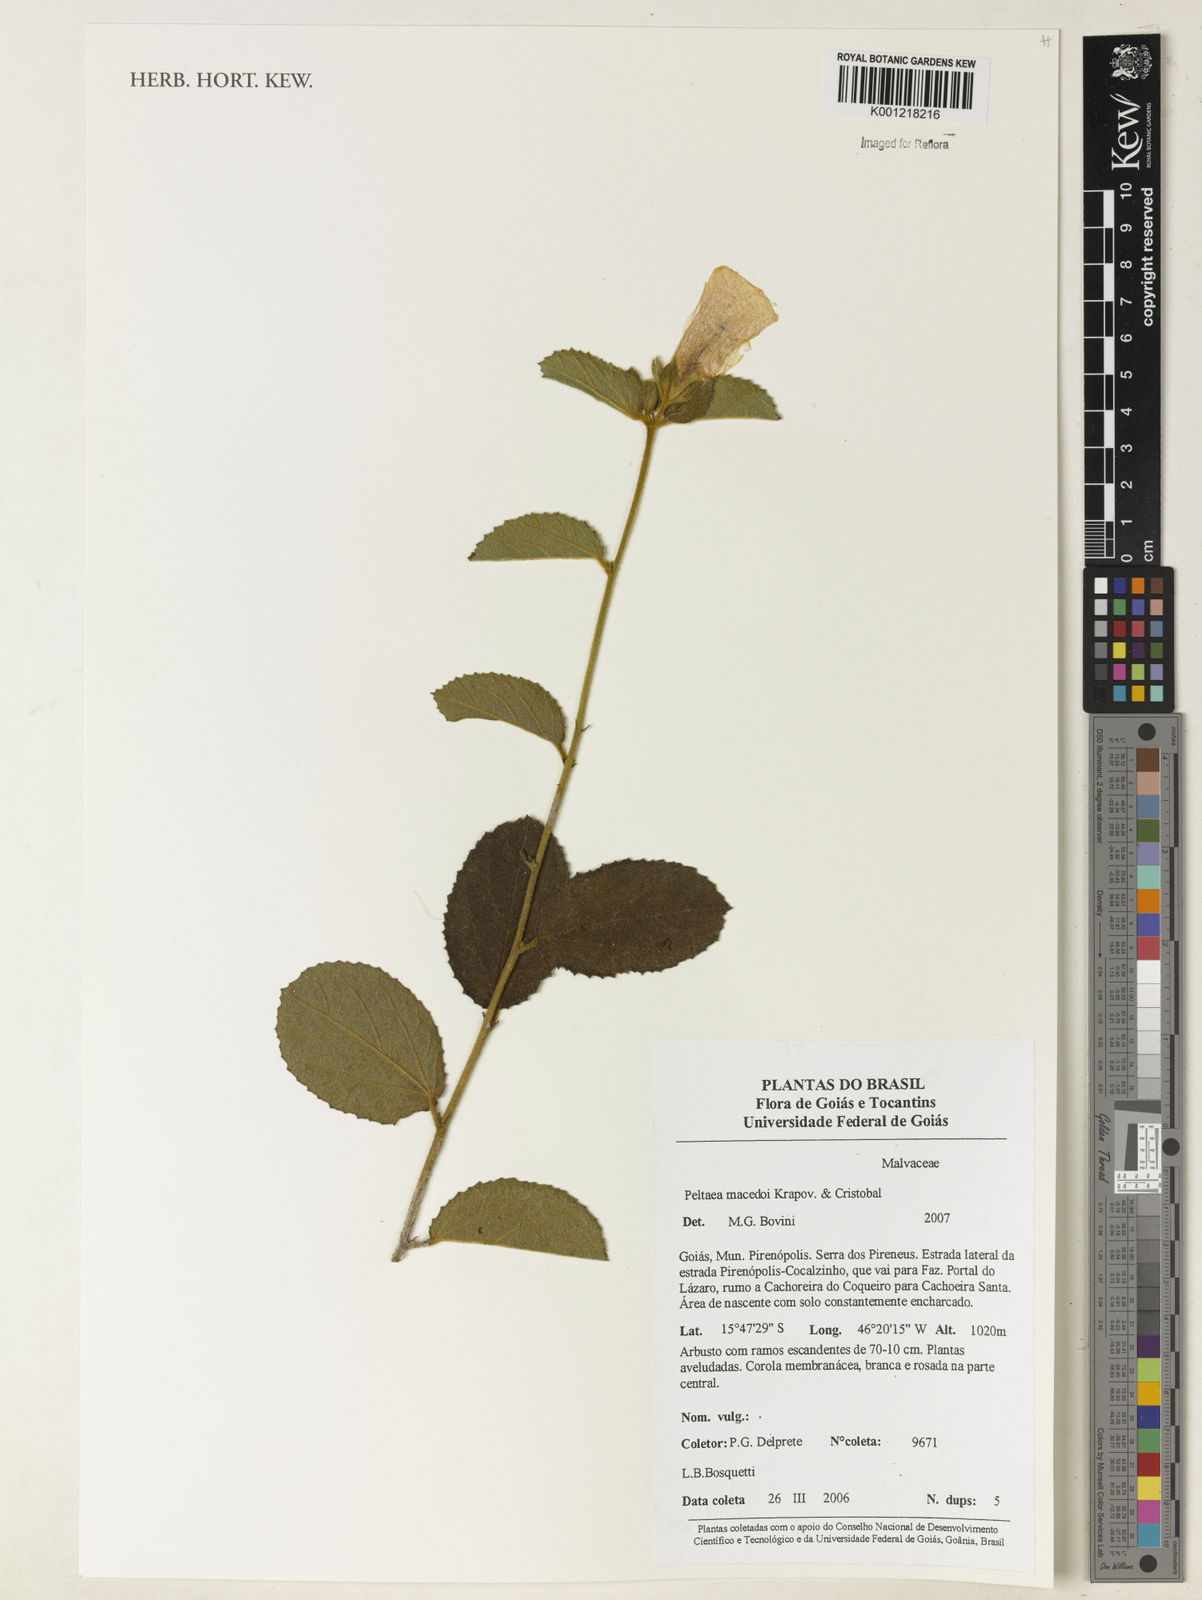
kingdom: Plantae
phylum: Tracheophyta
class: Magnoliopsida
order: Malvales
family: Malvaceae
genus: Peltaea
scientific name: Peltaea
